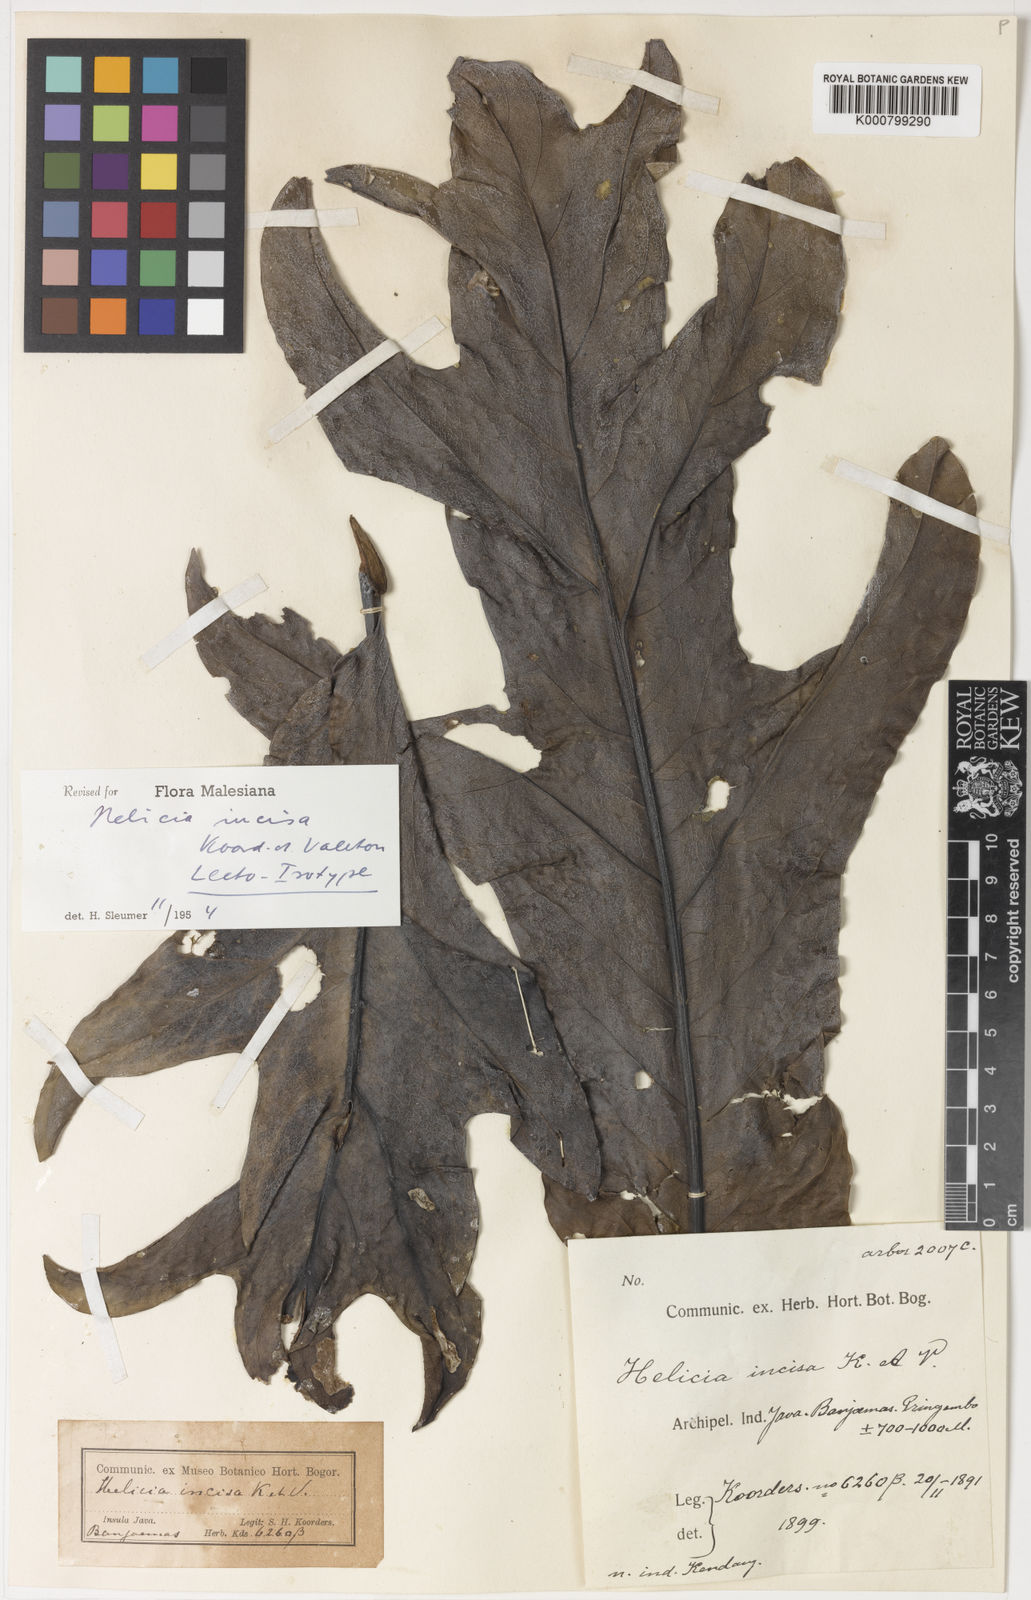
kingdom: Plantae
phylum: Tracheophyta
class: Magnoliopsida
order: Proteales
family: Proteaceae
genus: Heliciopsis
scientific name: Heliciopsis incisa
